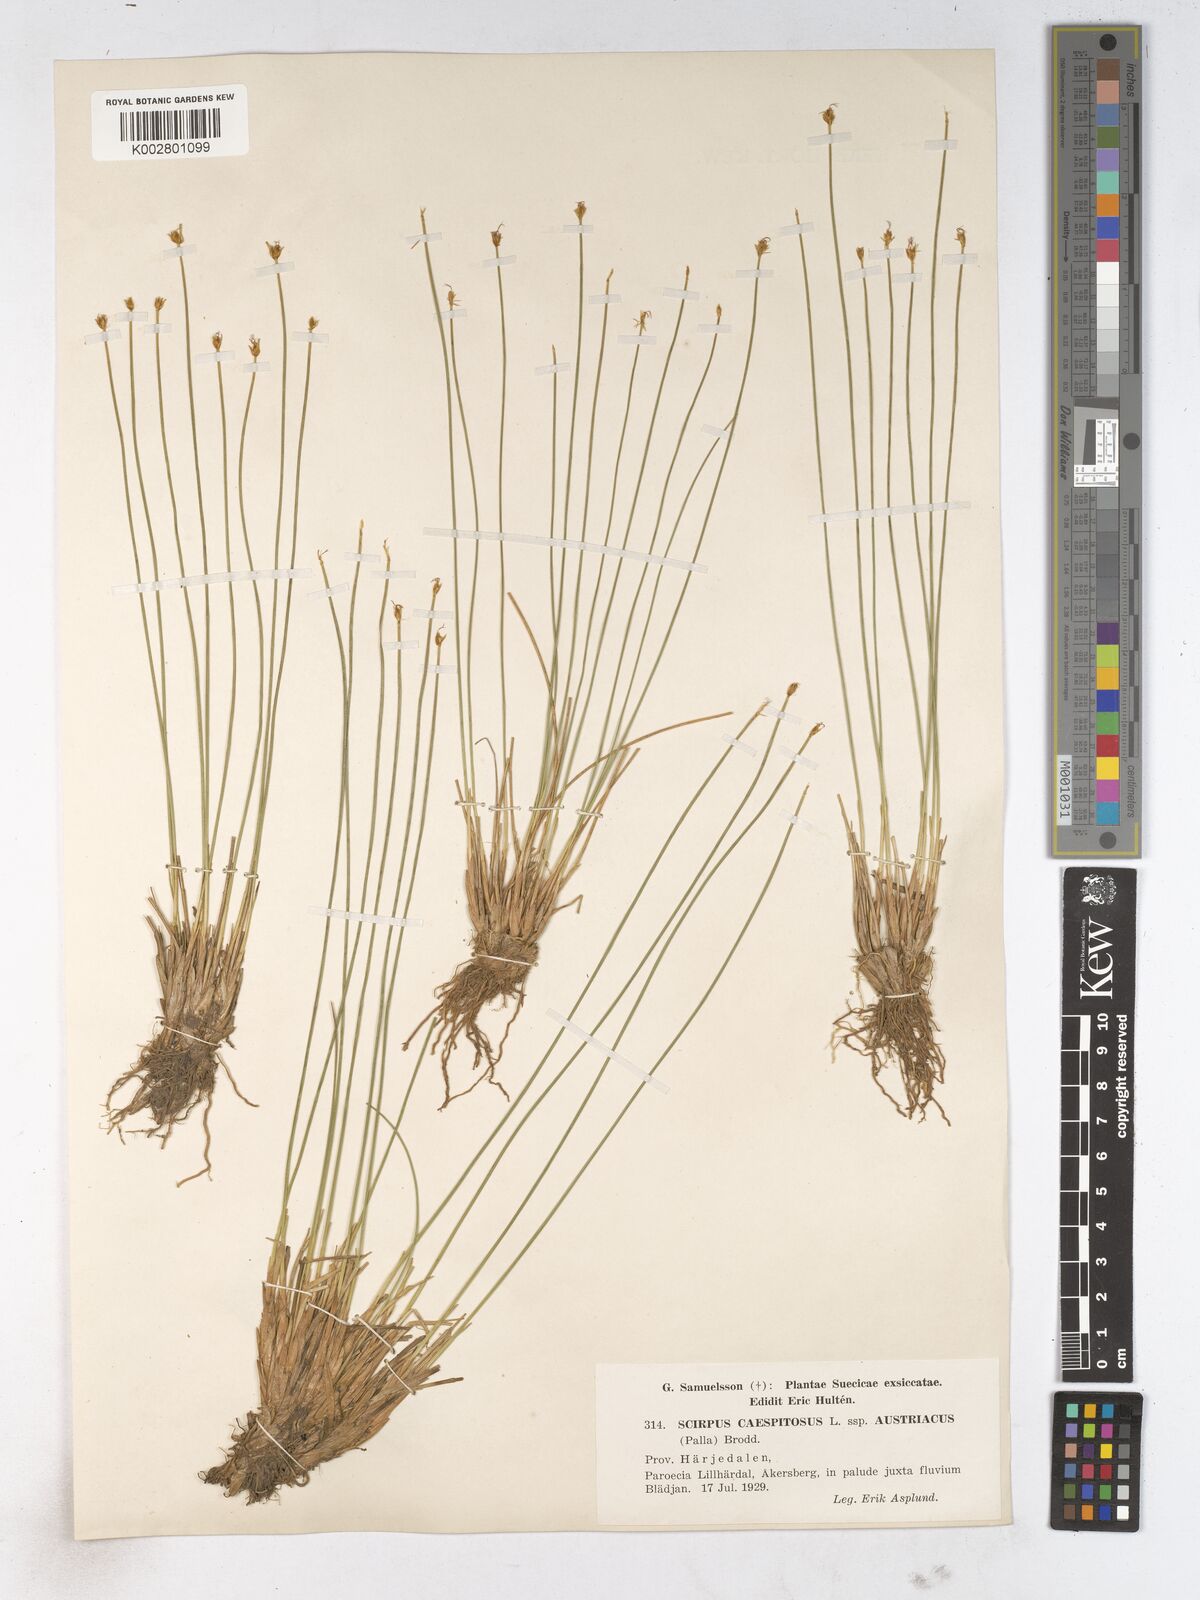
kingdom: Plantae
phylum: Tracheophyta
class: Liliopsida
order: Poales
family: Cyperaceae
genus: Trichophorum
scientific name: Trichophorum cespitosum
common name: Cespitose bulrush
